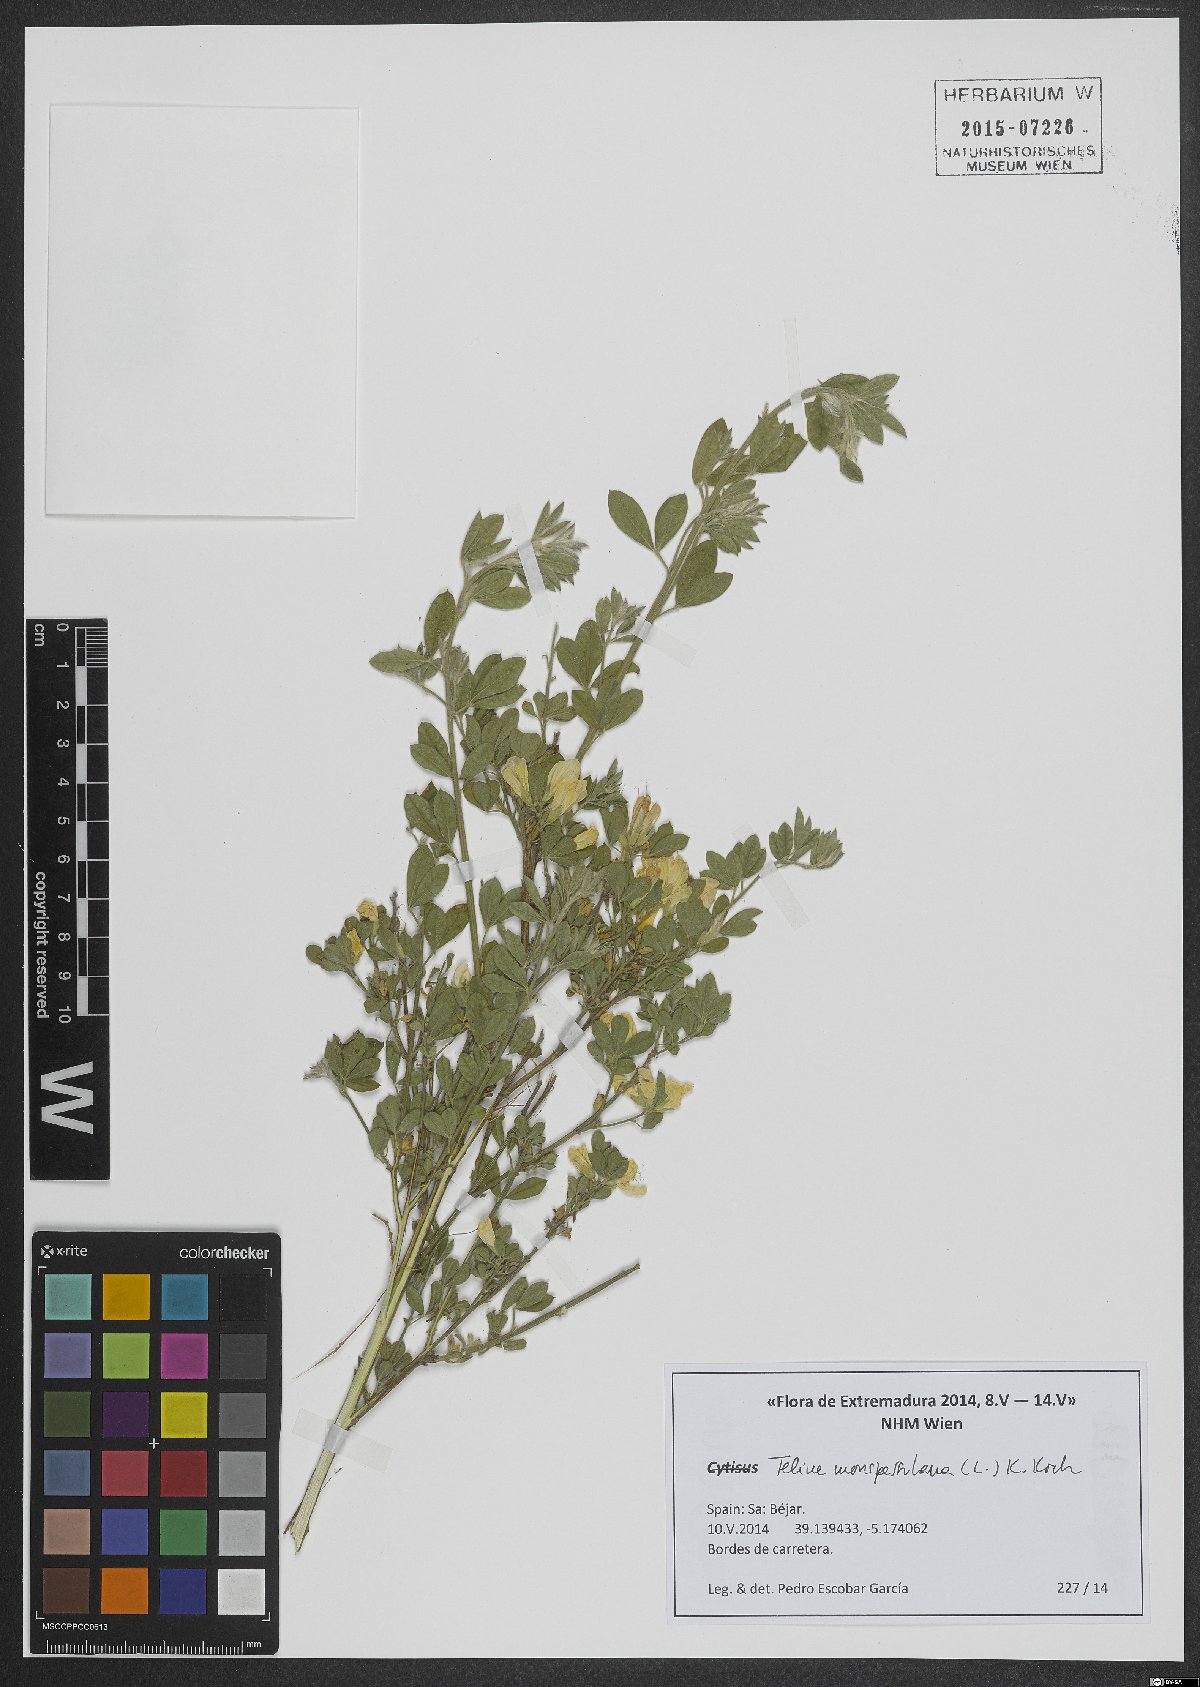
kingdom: Plantae
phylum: Tracheophyta
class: Magnoliopsida
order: Fabales
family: Fabaceae
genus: Genista
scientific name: Genista monspessulana
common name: Montpellier broom
